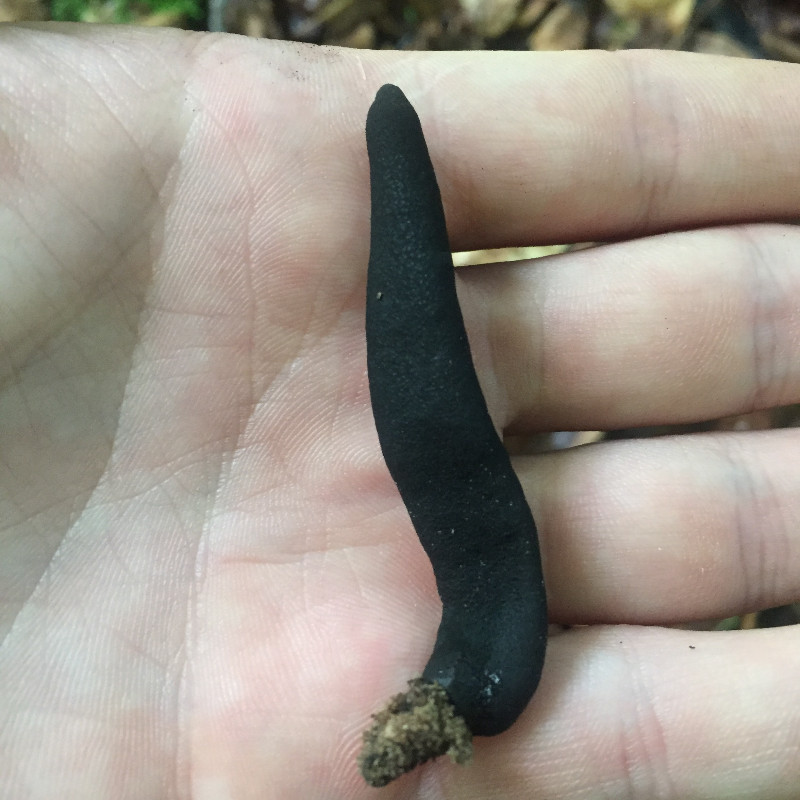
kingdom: Fungi
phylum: Ascomycota
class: Sordariomycetes
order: Xylariales
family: Xylariaceae
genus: Xylaria
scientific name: Xylaria longipes
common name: slank stødsvamp
